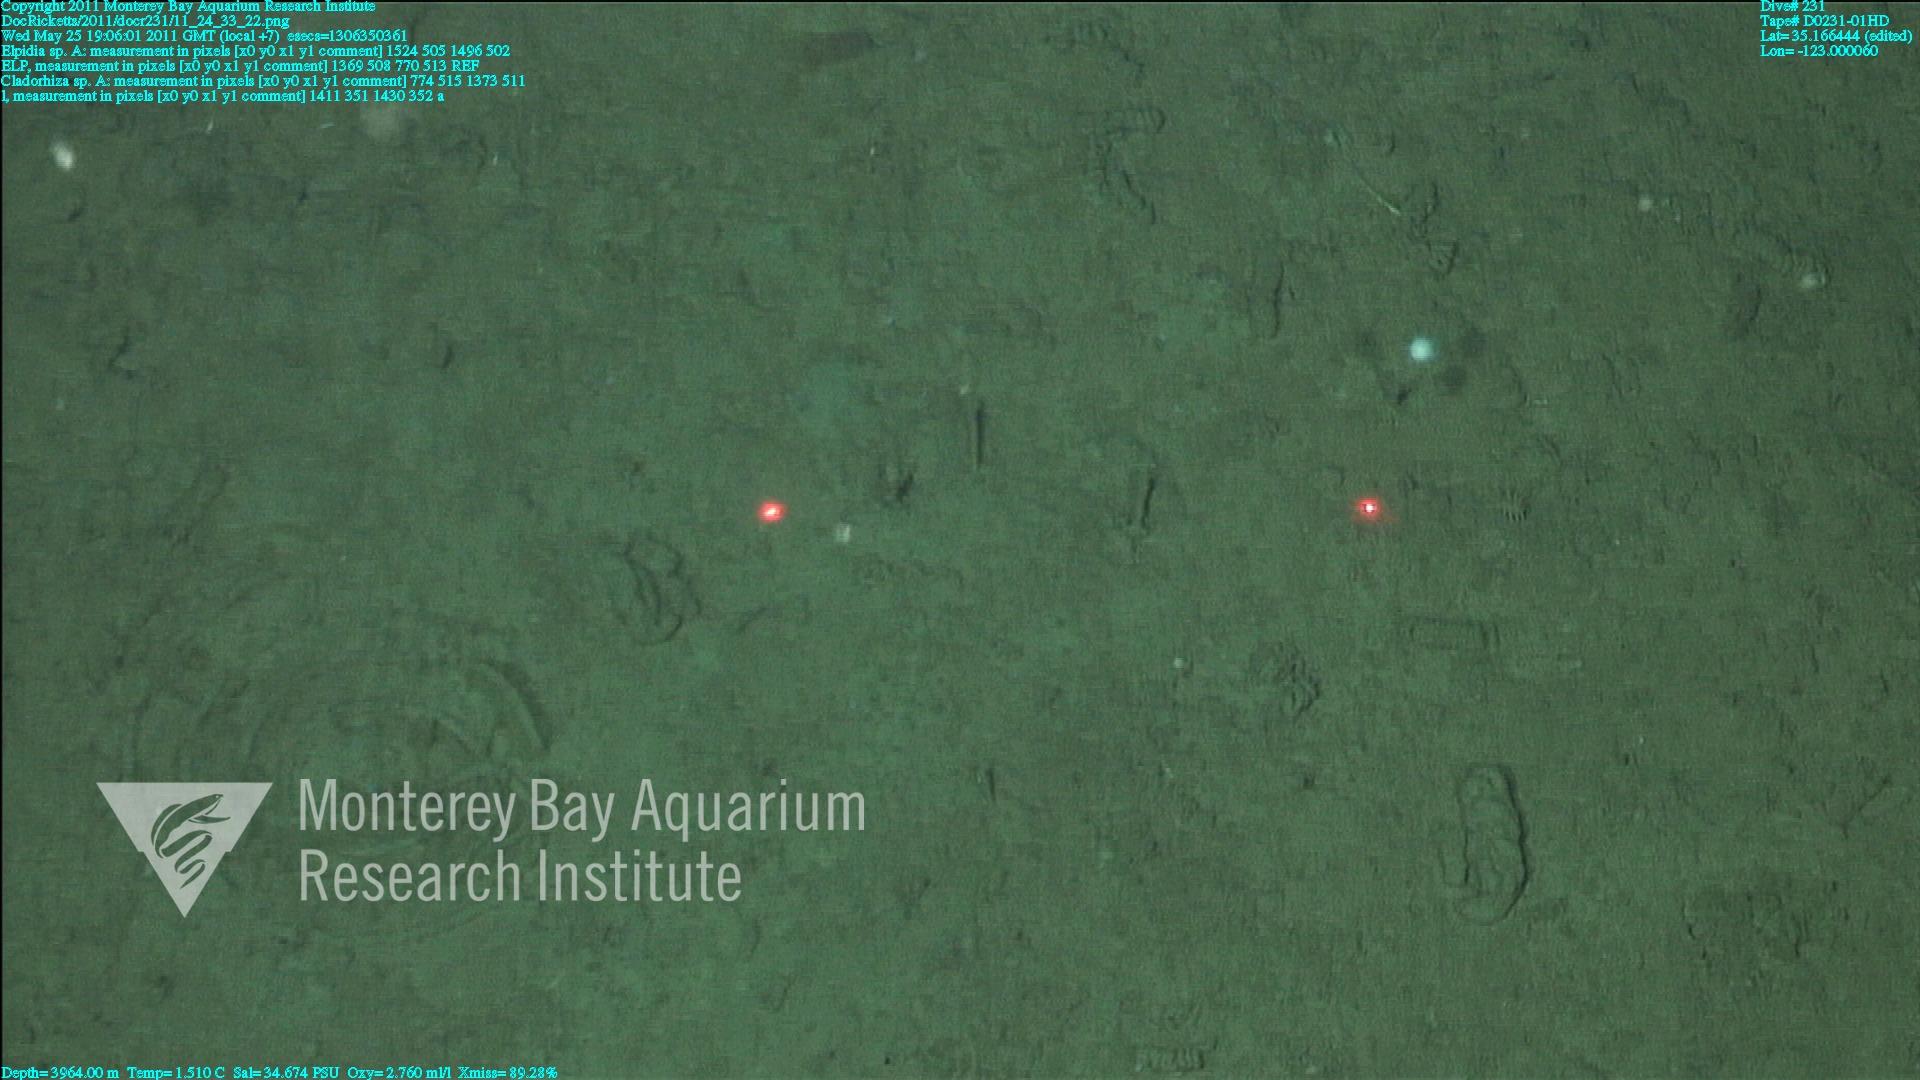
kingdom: Animalia
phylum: Porifera
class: Demospongiae
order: Poecilosclerida
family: Cladorhizidae
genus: Cladorhiza
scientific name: Cladorhiza
